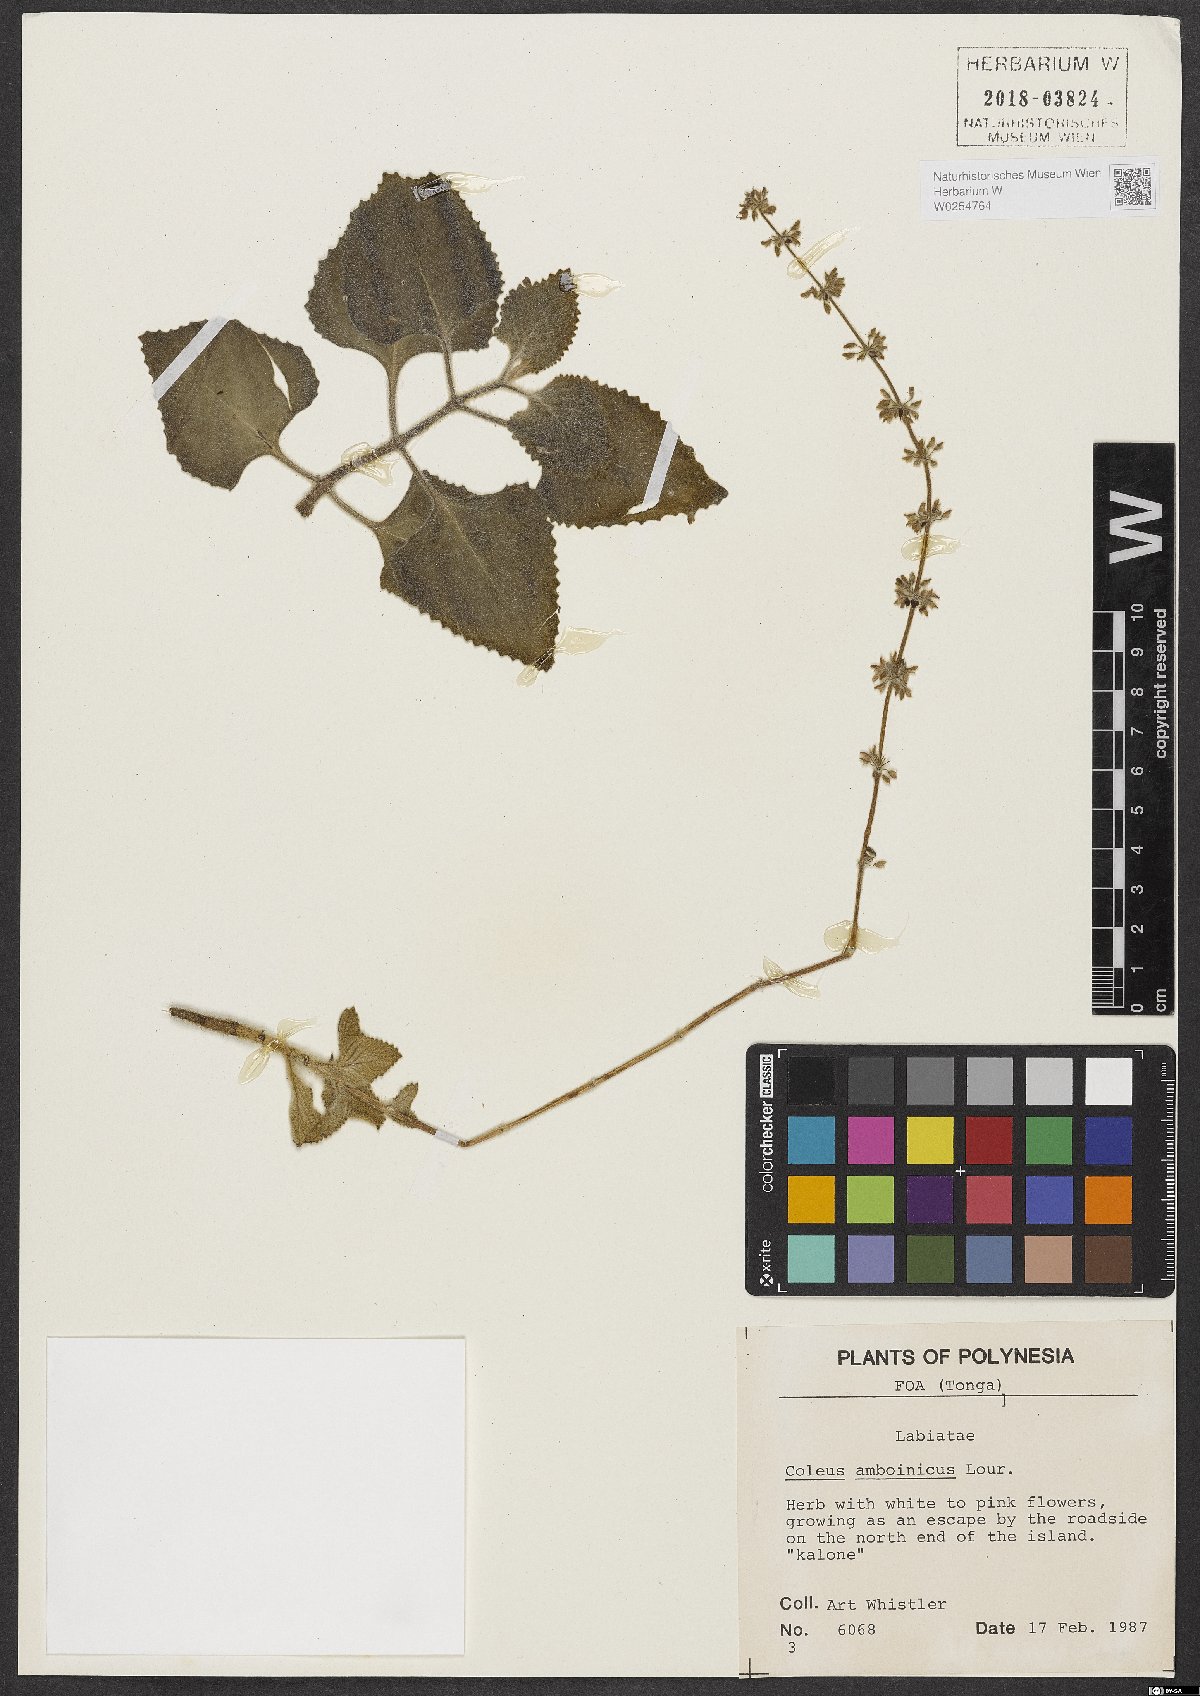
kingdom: Plantae
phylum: Tracheophyta
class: Magnoliopsida
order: Lamiales
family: Lamiaceae
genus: Coleus
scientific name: Coleus amboinicus
